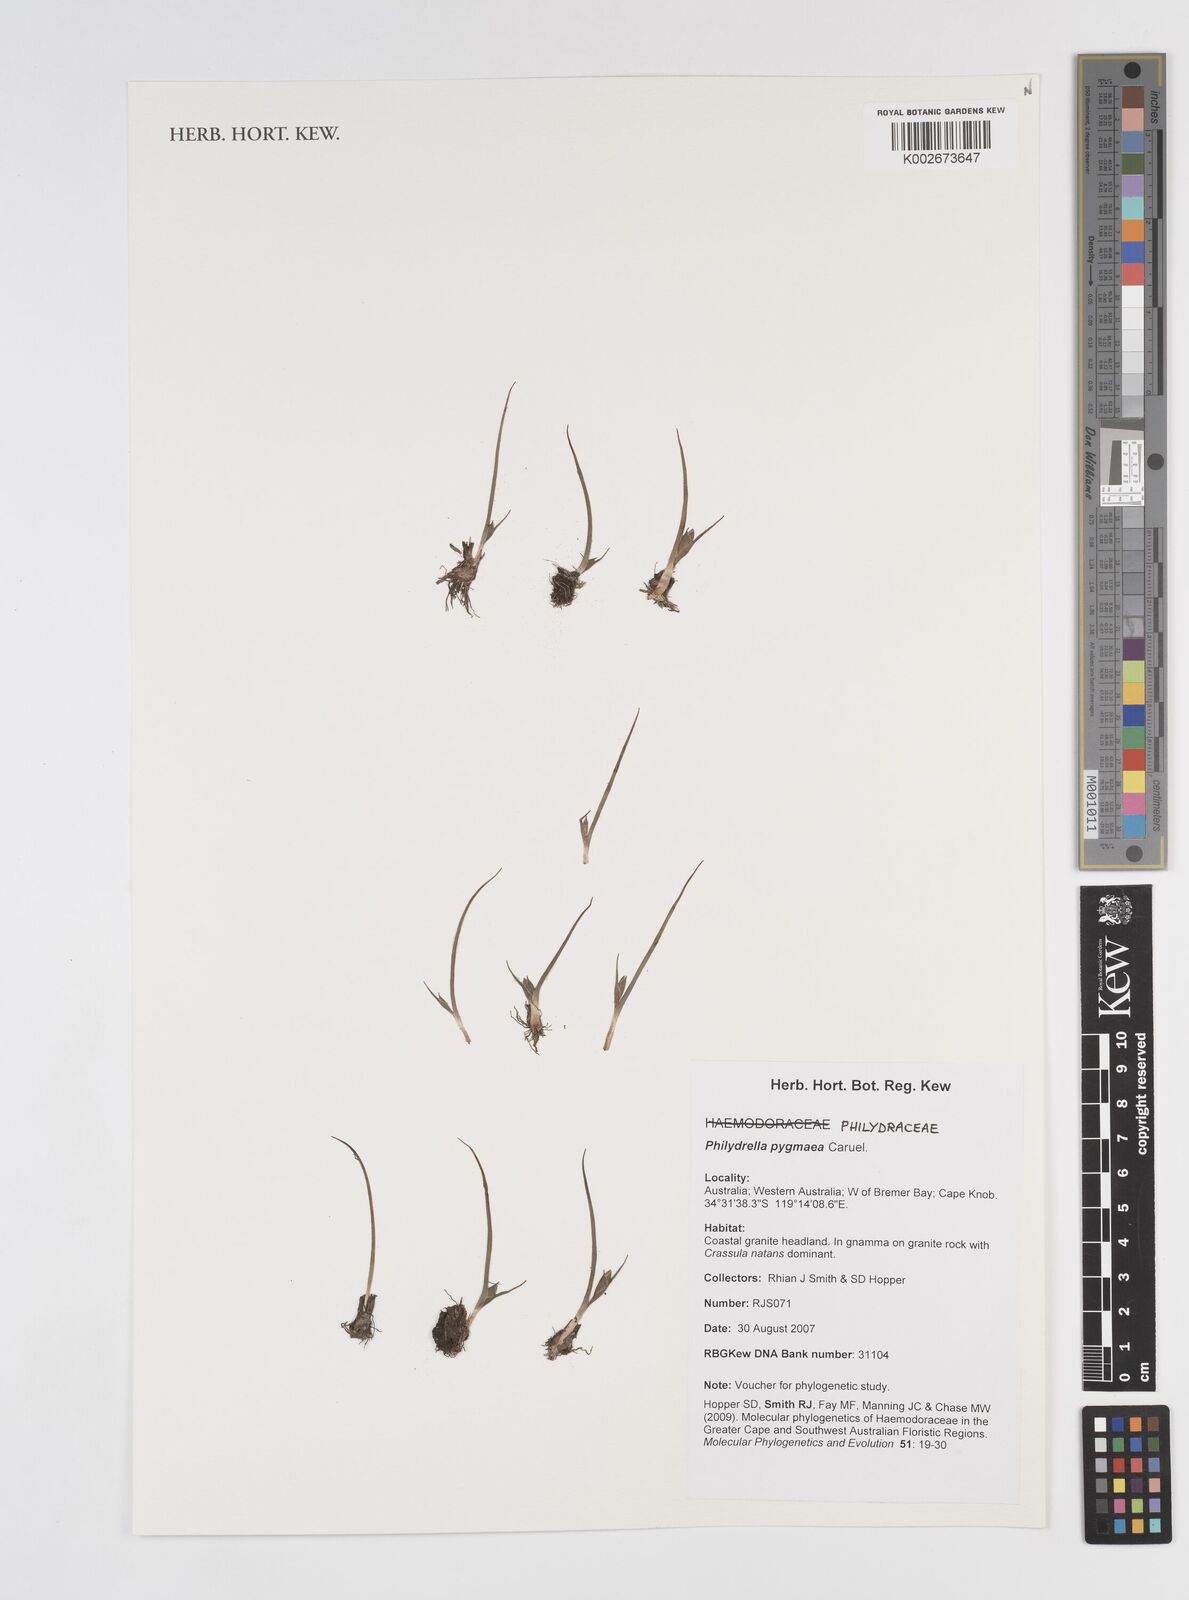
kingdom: Plantae
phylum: Tracheophyta
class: Liliopsida
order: Commelinales
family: Philydraceae
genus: Philydrella
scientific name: Philydrella pygmaea
